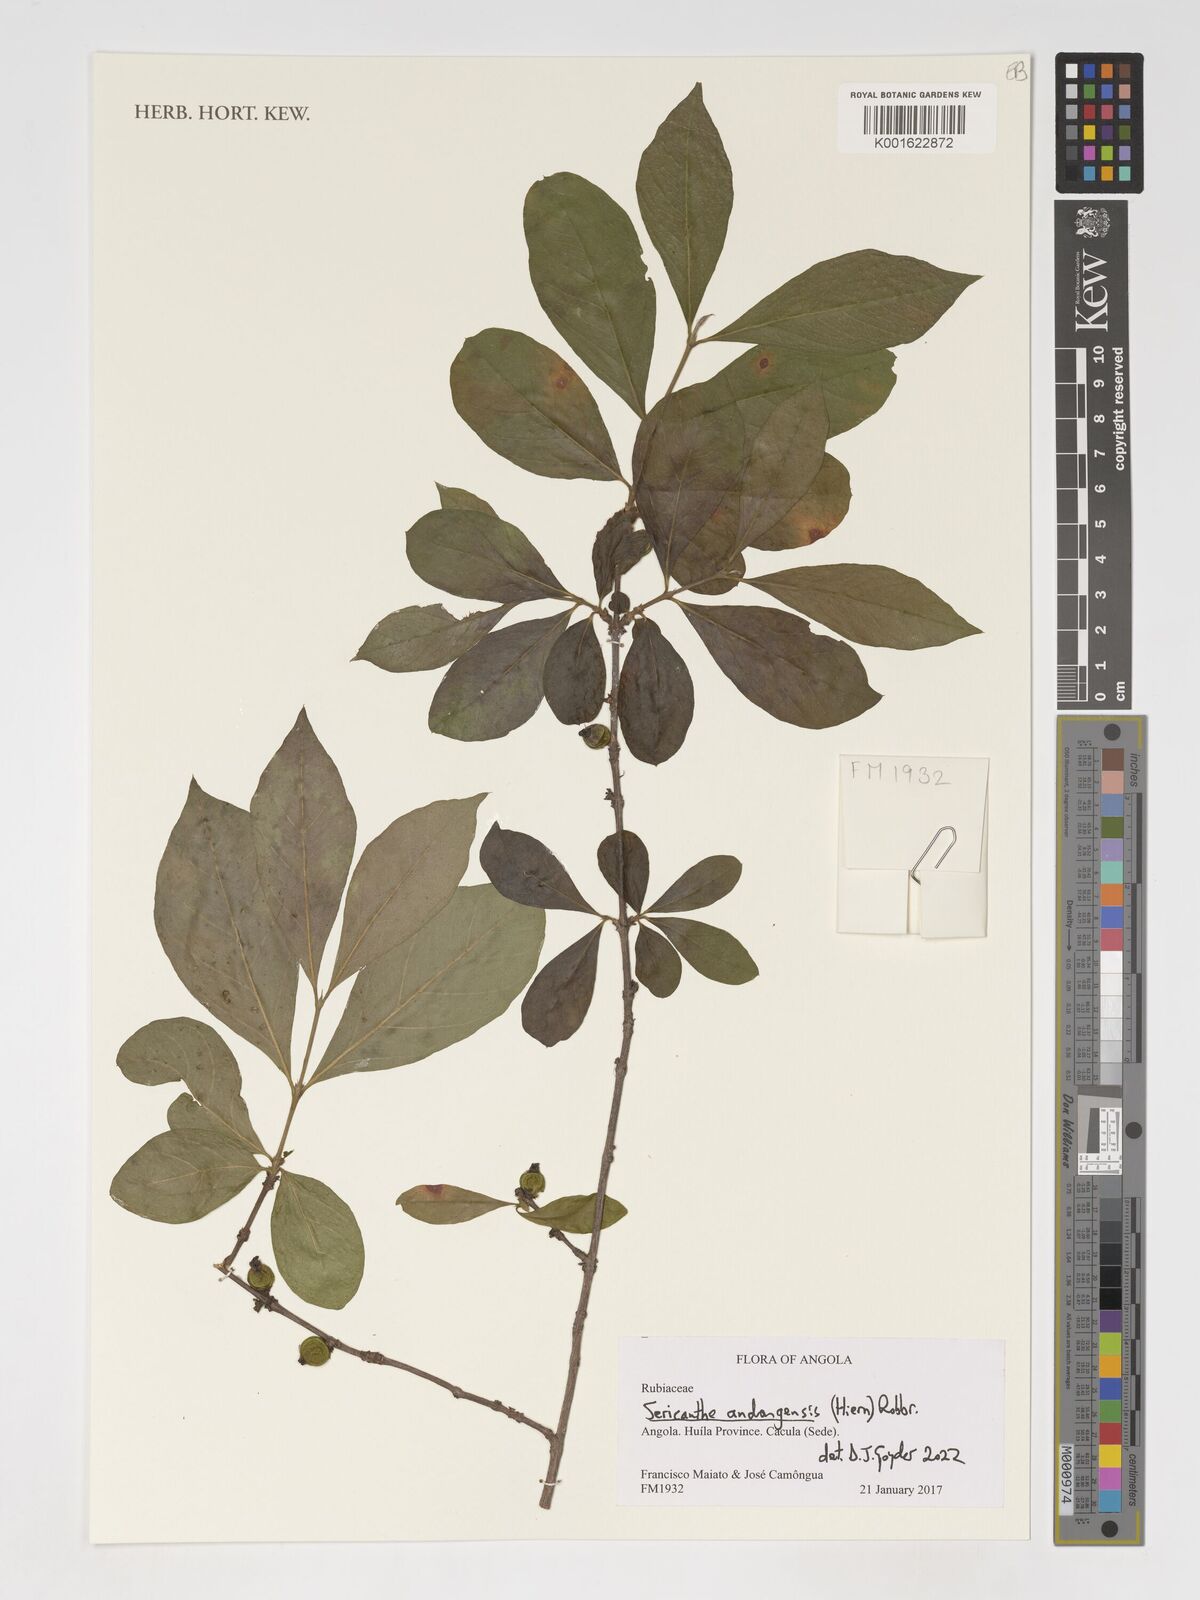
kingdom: Plantae
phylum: Tracheophyta
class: Magnoliopsida
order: Gentianales
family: Rubiaceae
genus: Sericanthe
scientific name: Sericanthe andongensis
